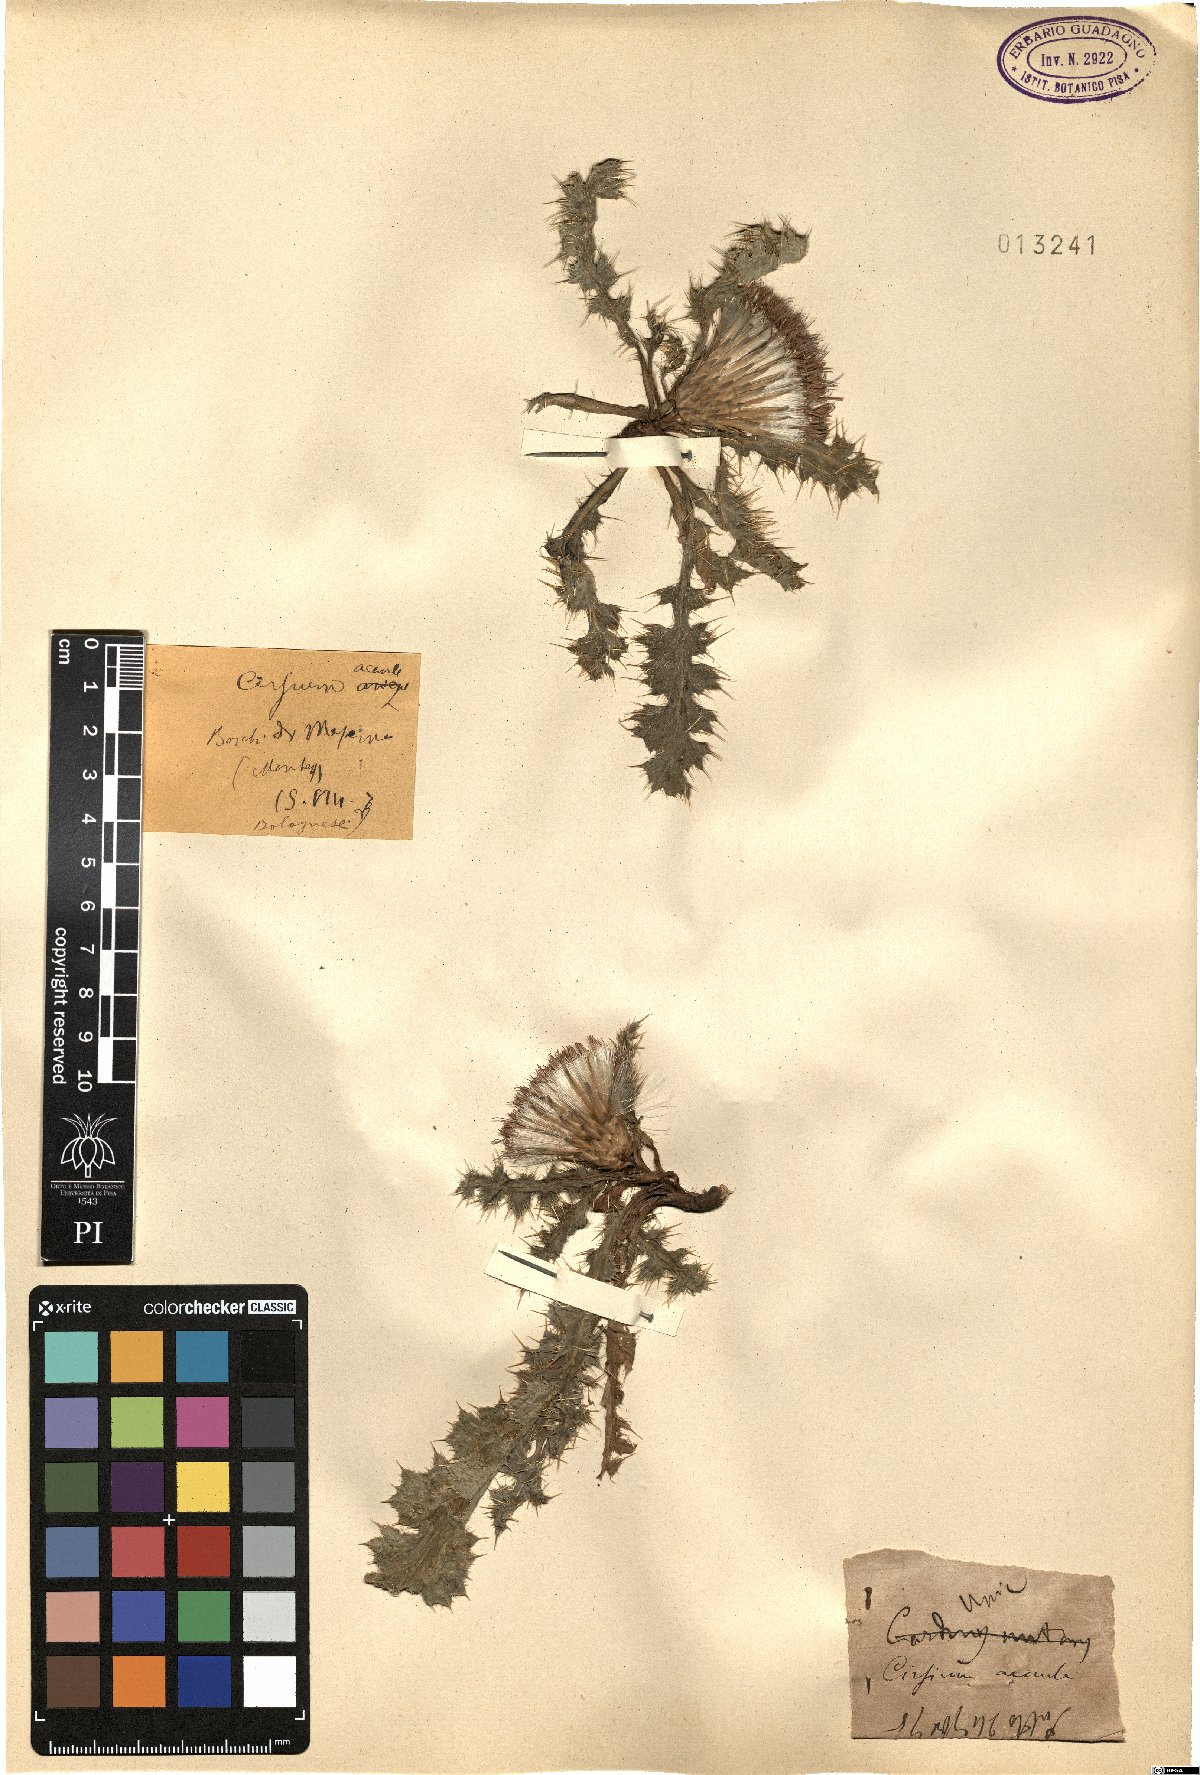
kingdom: Plantae
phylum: Tracheophyta
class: Magnoliopsida
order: Asterales
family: Asteraceae
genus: Cirsium
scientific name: Cirsium acaule
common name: Dwarf thistle
